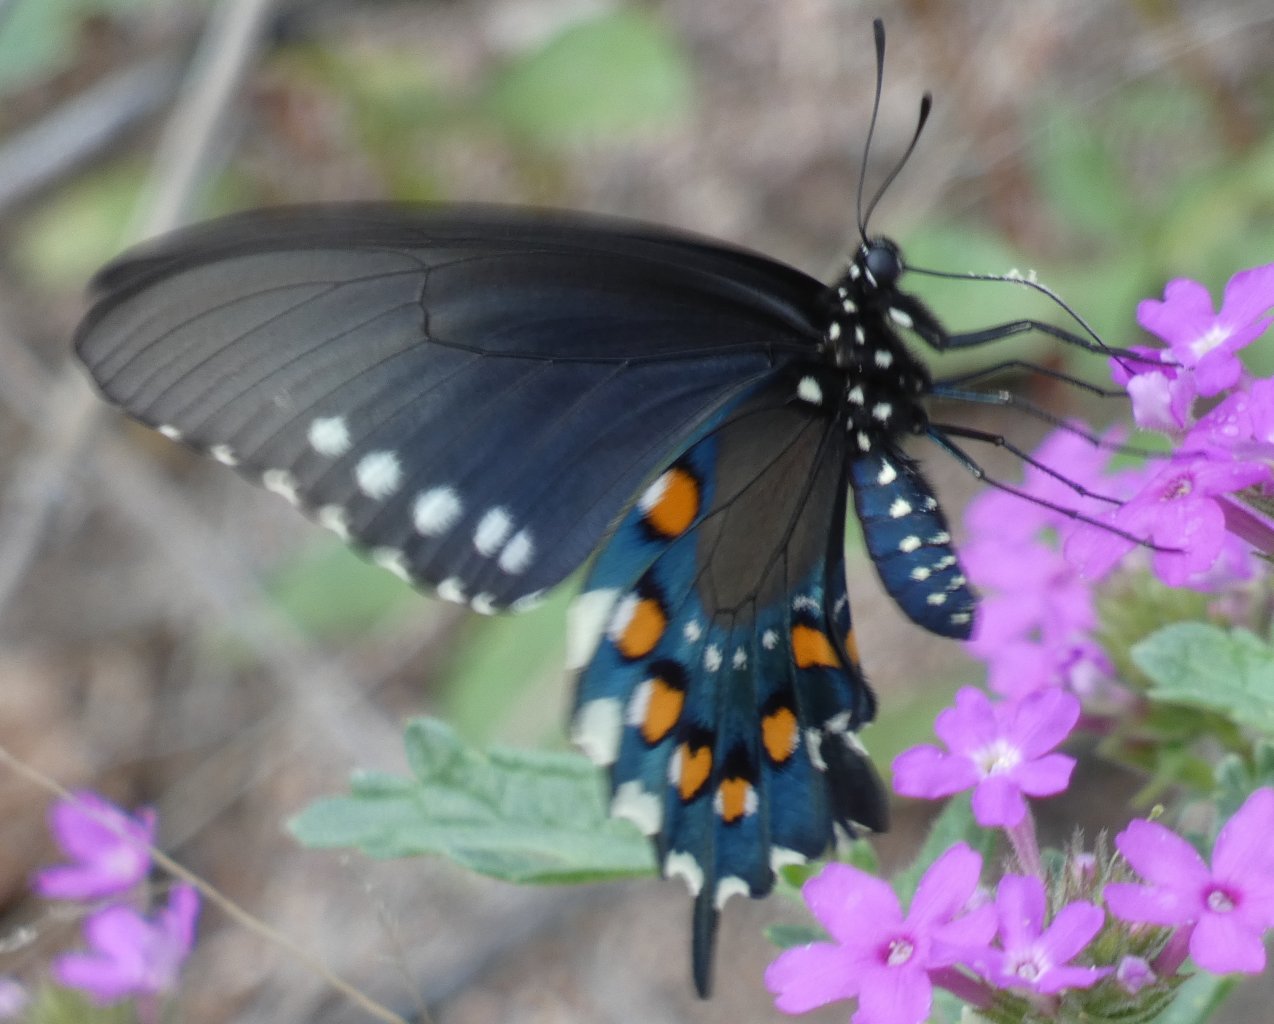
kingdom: Animalia
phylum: Arthropoda
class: Insecta
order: Lepidoptera
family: Papilionidae
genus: Battus
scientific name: Battus philenor
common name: Pipevine Swallowtail
